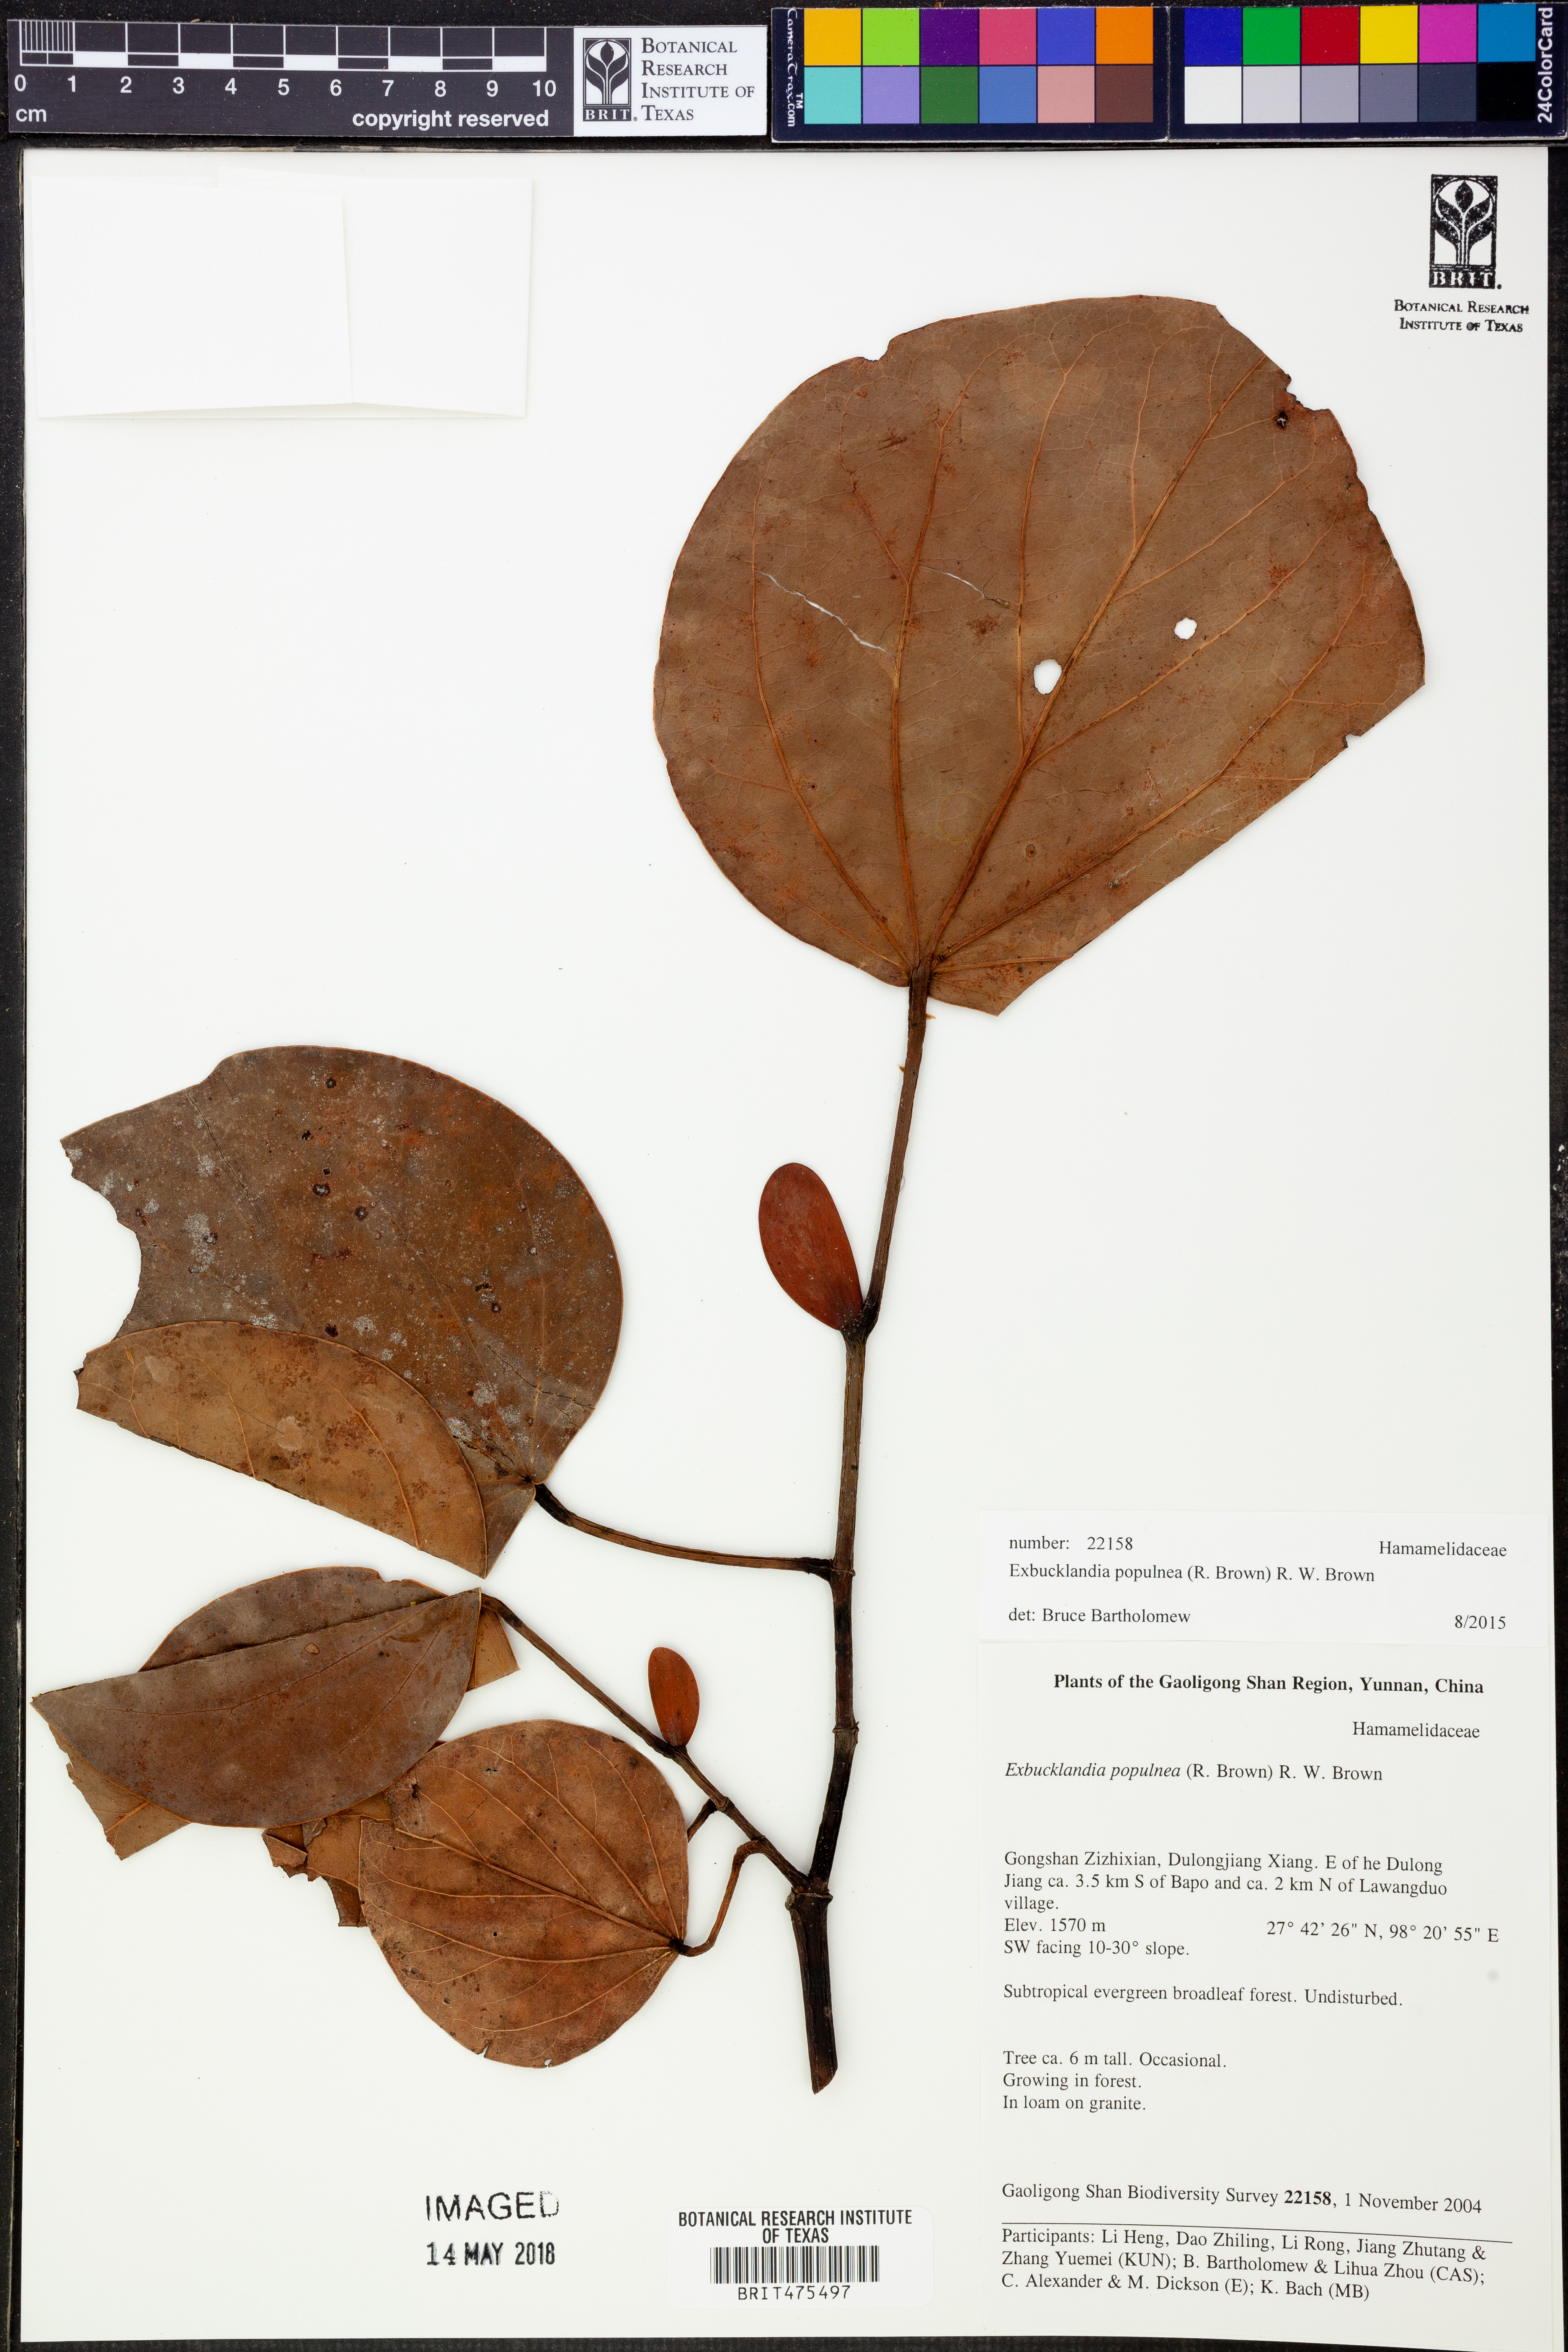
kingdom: Plantae
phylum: Tracheophyta
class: Magnoliopsida
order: Saxifragales
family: Hamamelidaceae
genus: Exbucklandia
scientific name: Exbucklandia populnea
